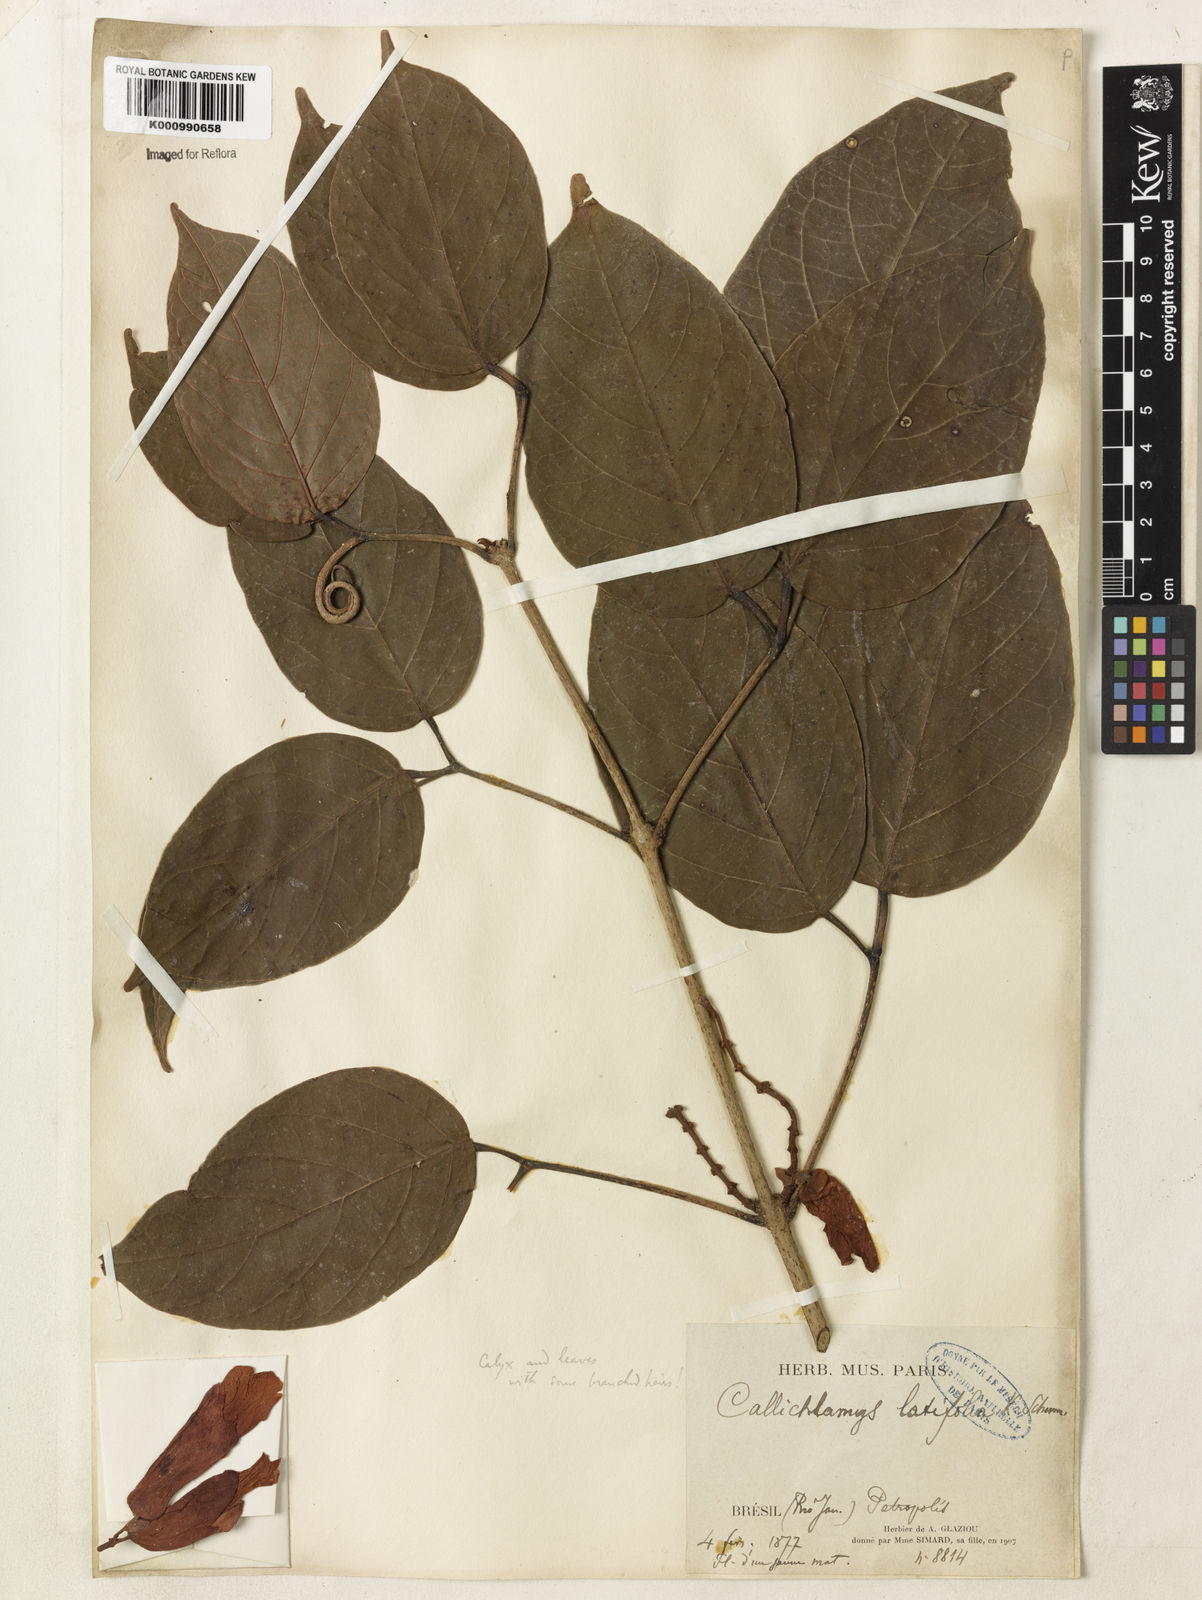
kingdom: Plantae
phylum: Tracheophyta
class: Magnoliopsida
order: Lamiales
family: Bignoniaceae
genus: Callichlamys
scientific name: Callichlamys latifolia
